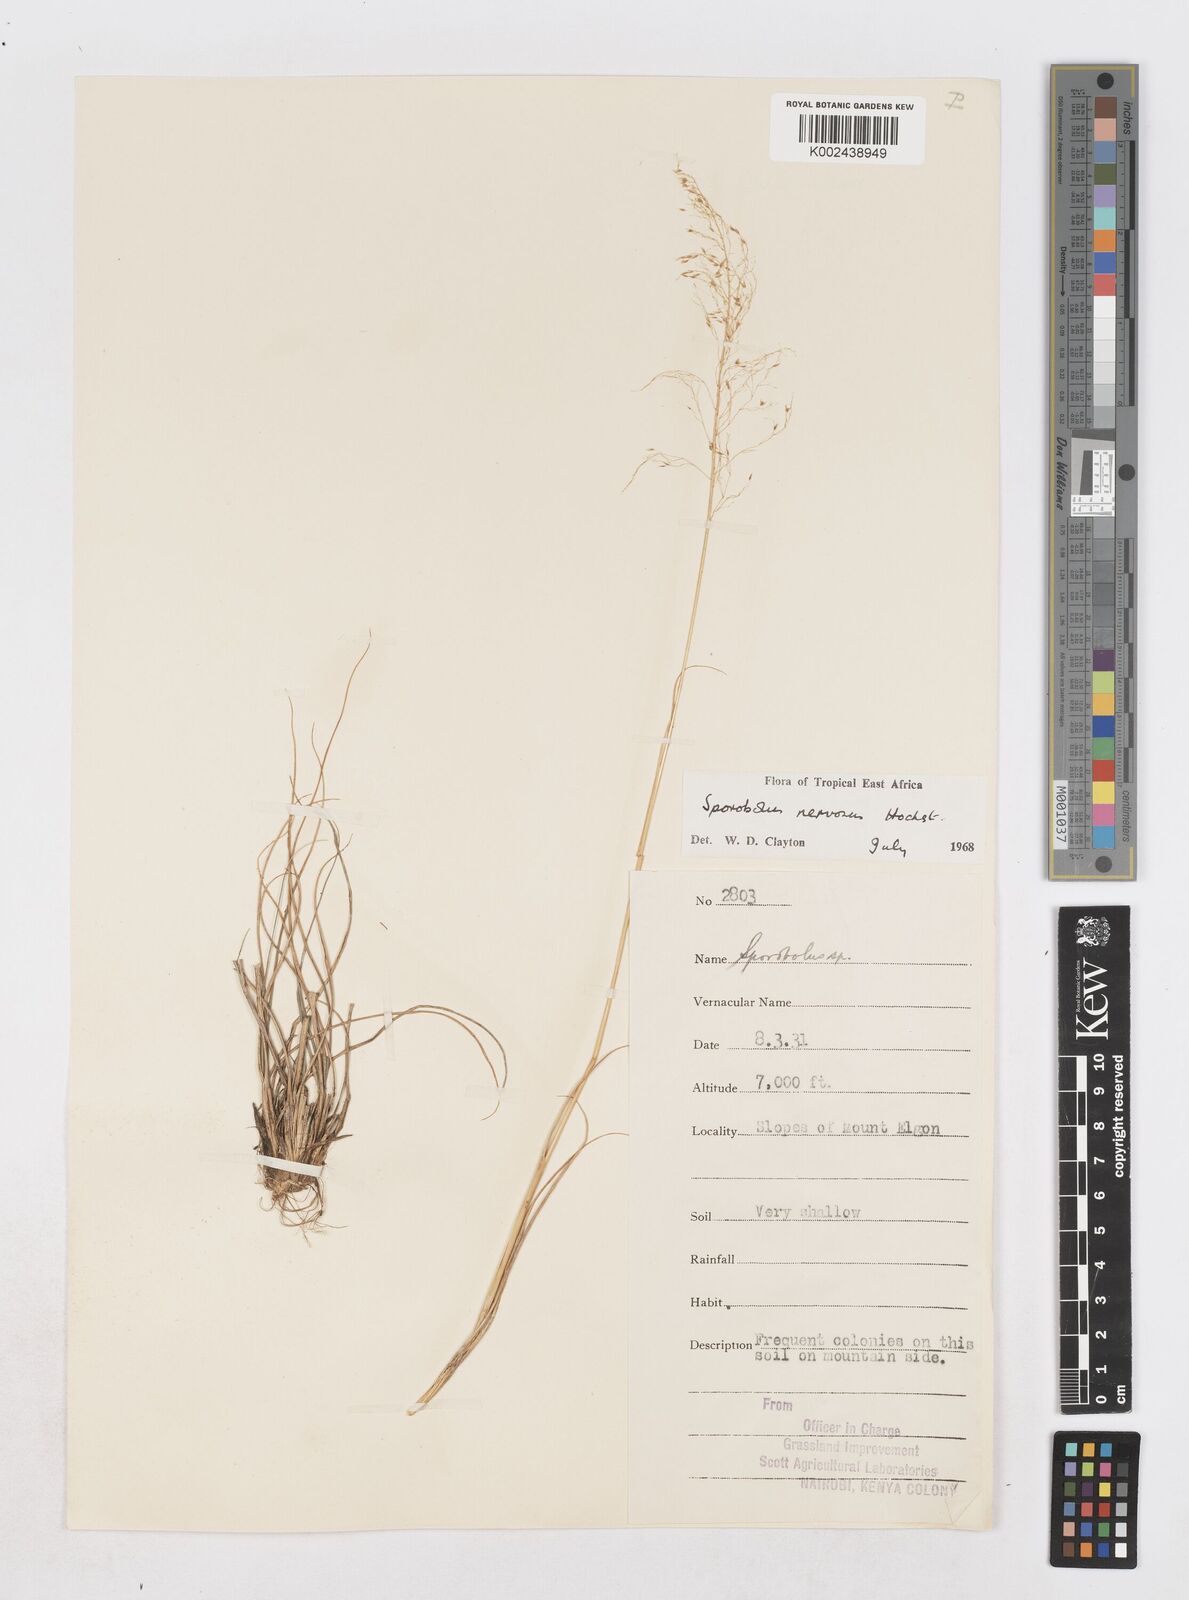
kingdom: Plantae
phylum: Tracheophyta
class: Liliopsida
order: Poales
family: Poaceae
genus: Sporobolus
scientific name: Sporobolus nervosus
